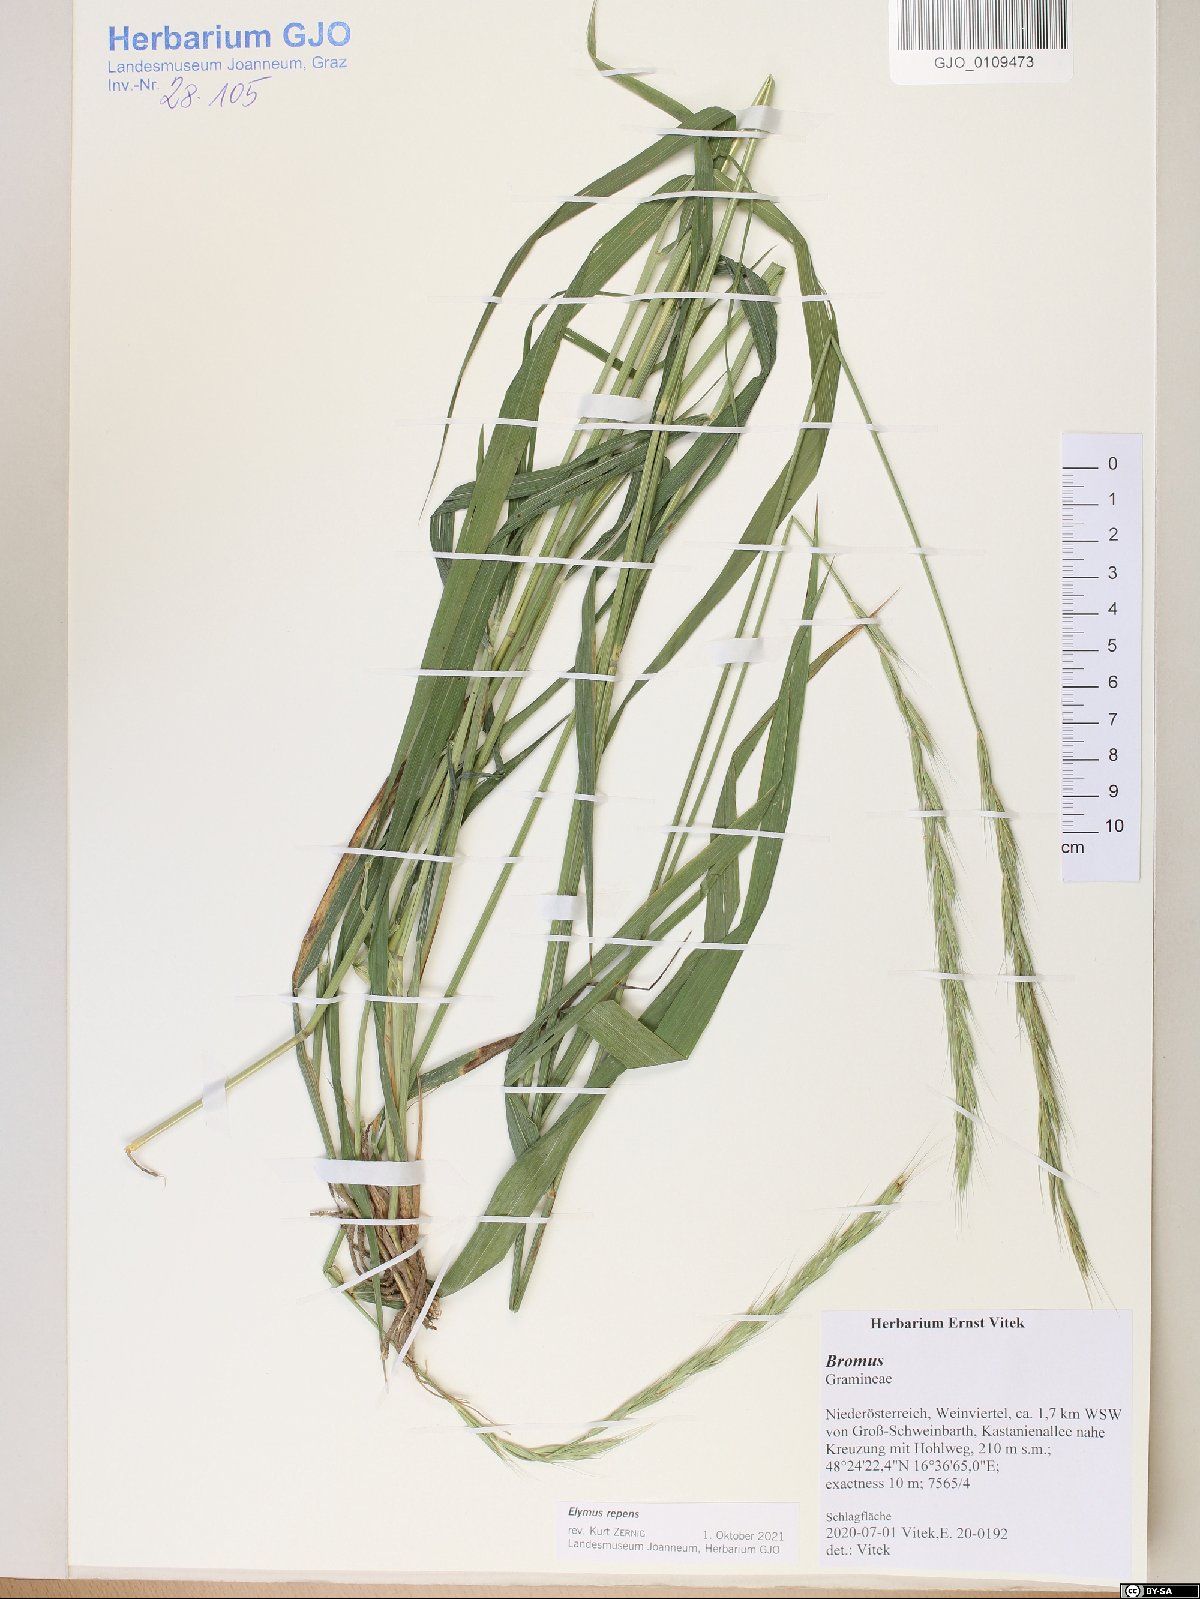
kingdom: Plantae
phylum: Tracheophyta
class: Liliopsida
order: Poales
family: Poaceae
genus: Elymus
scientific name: Elymus caninus
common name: Bearded couch
